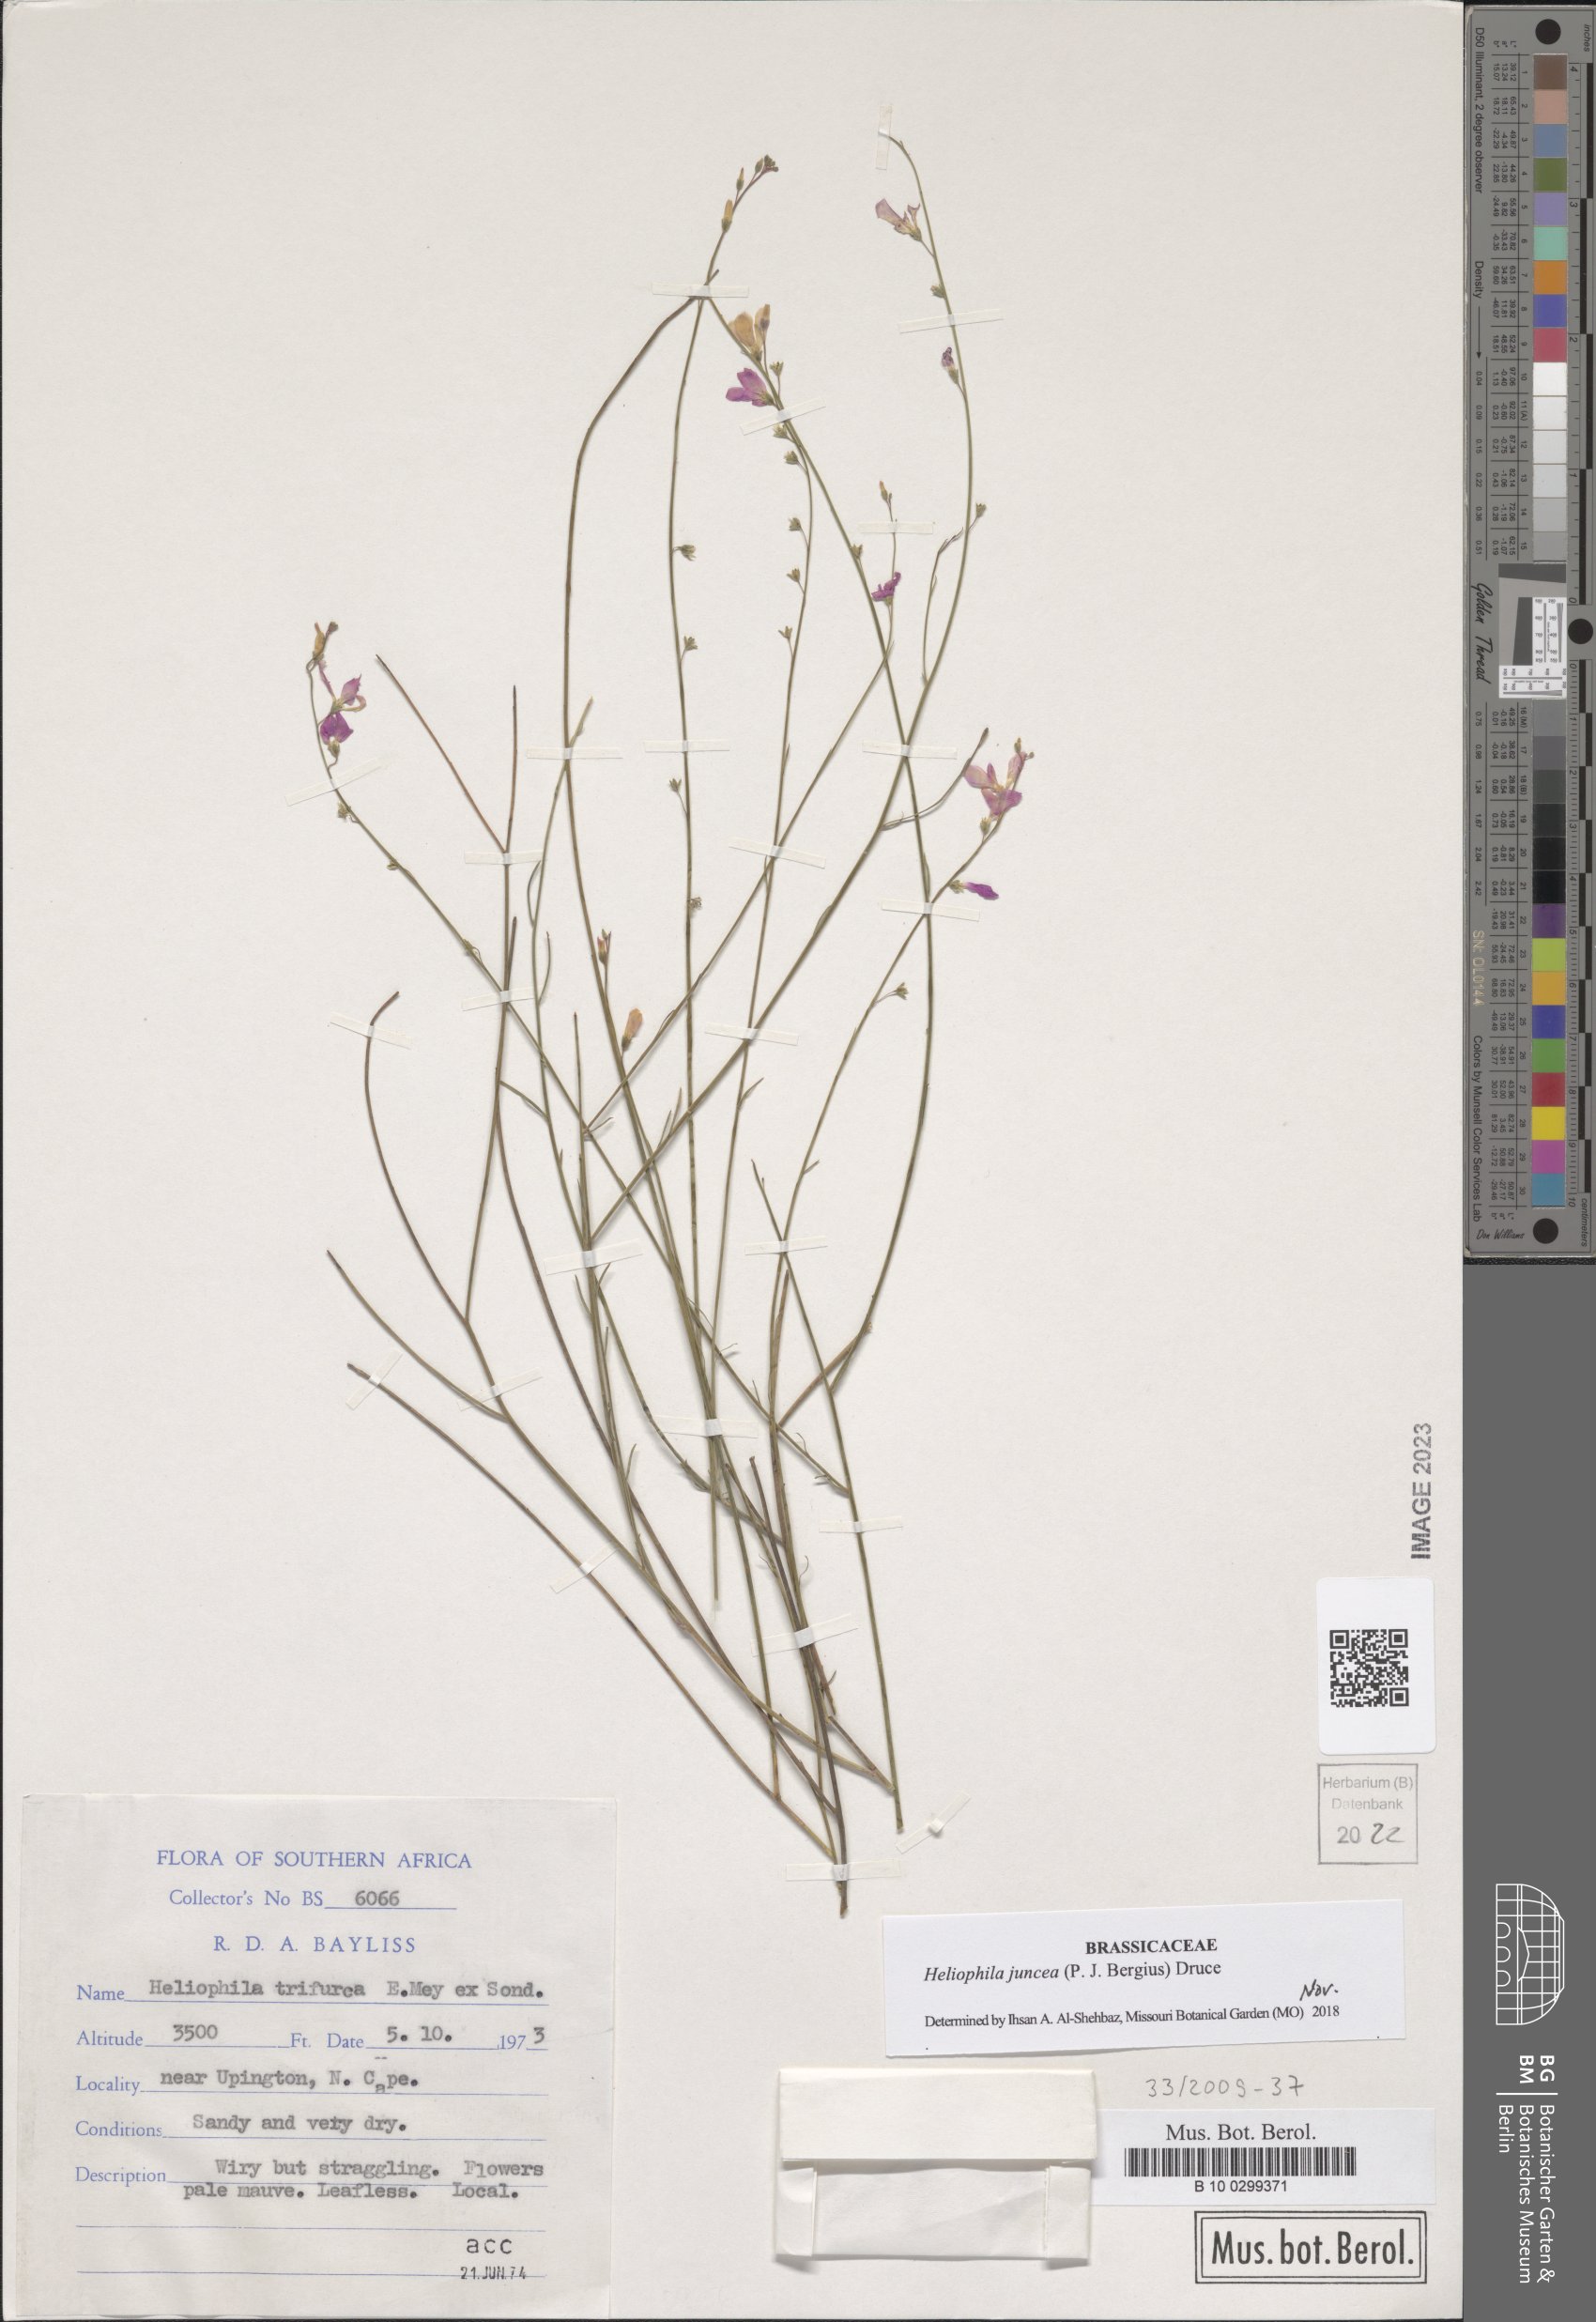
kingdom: Plantae
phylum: Tracheophyta
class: Magnoliopsida
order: Brassicales
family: Brassicaceae
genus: Heliophila
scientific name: Heliophila juncea
